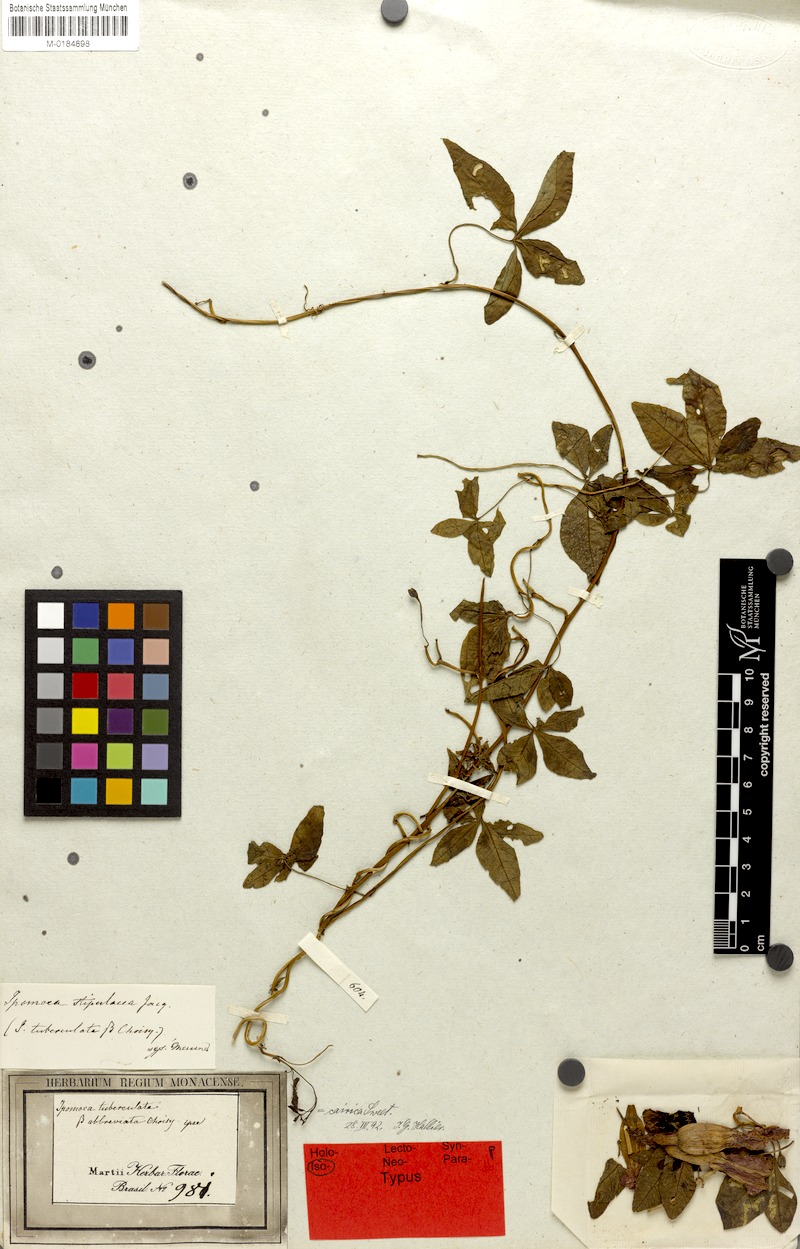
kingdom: Plantae
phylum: Tracheophyta
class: Magnoliopsida
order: Solanales
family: Convolvulaceae
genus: Ipomoea
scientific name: Ipomoea cairica
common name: Mile a minute vine
